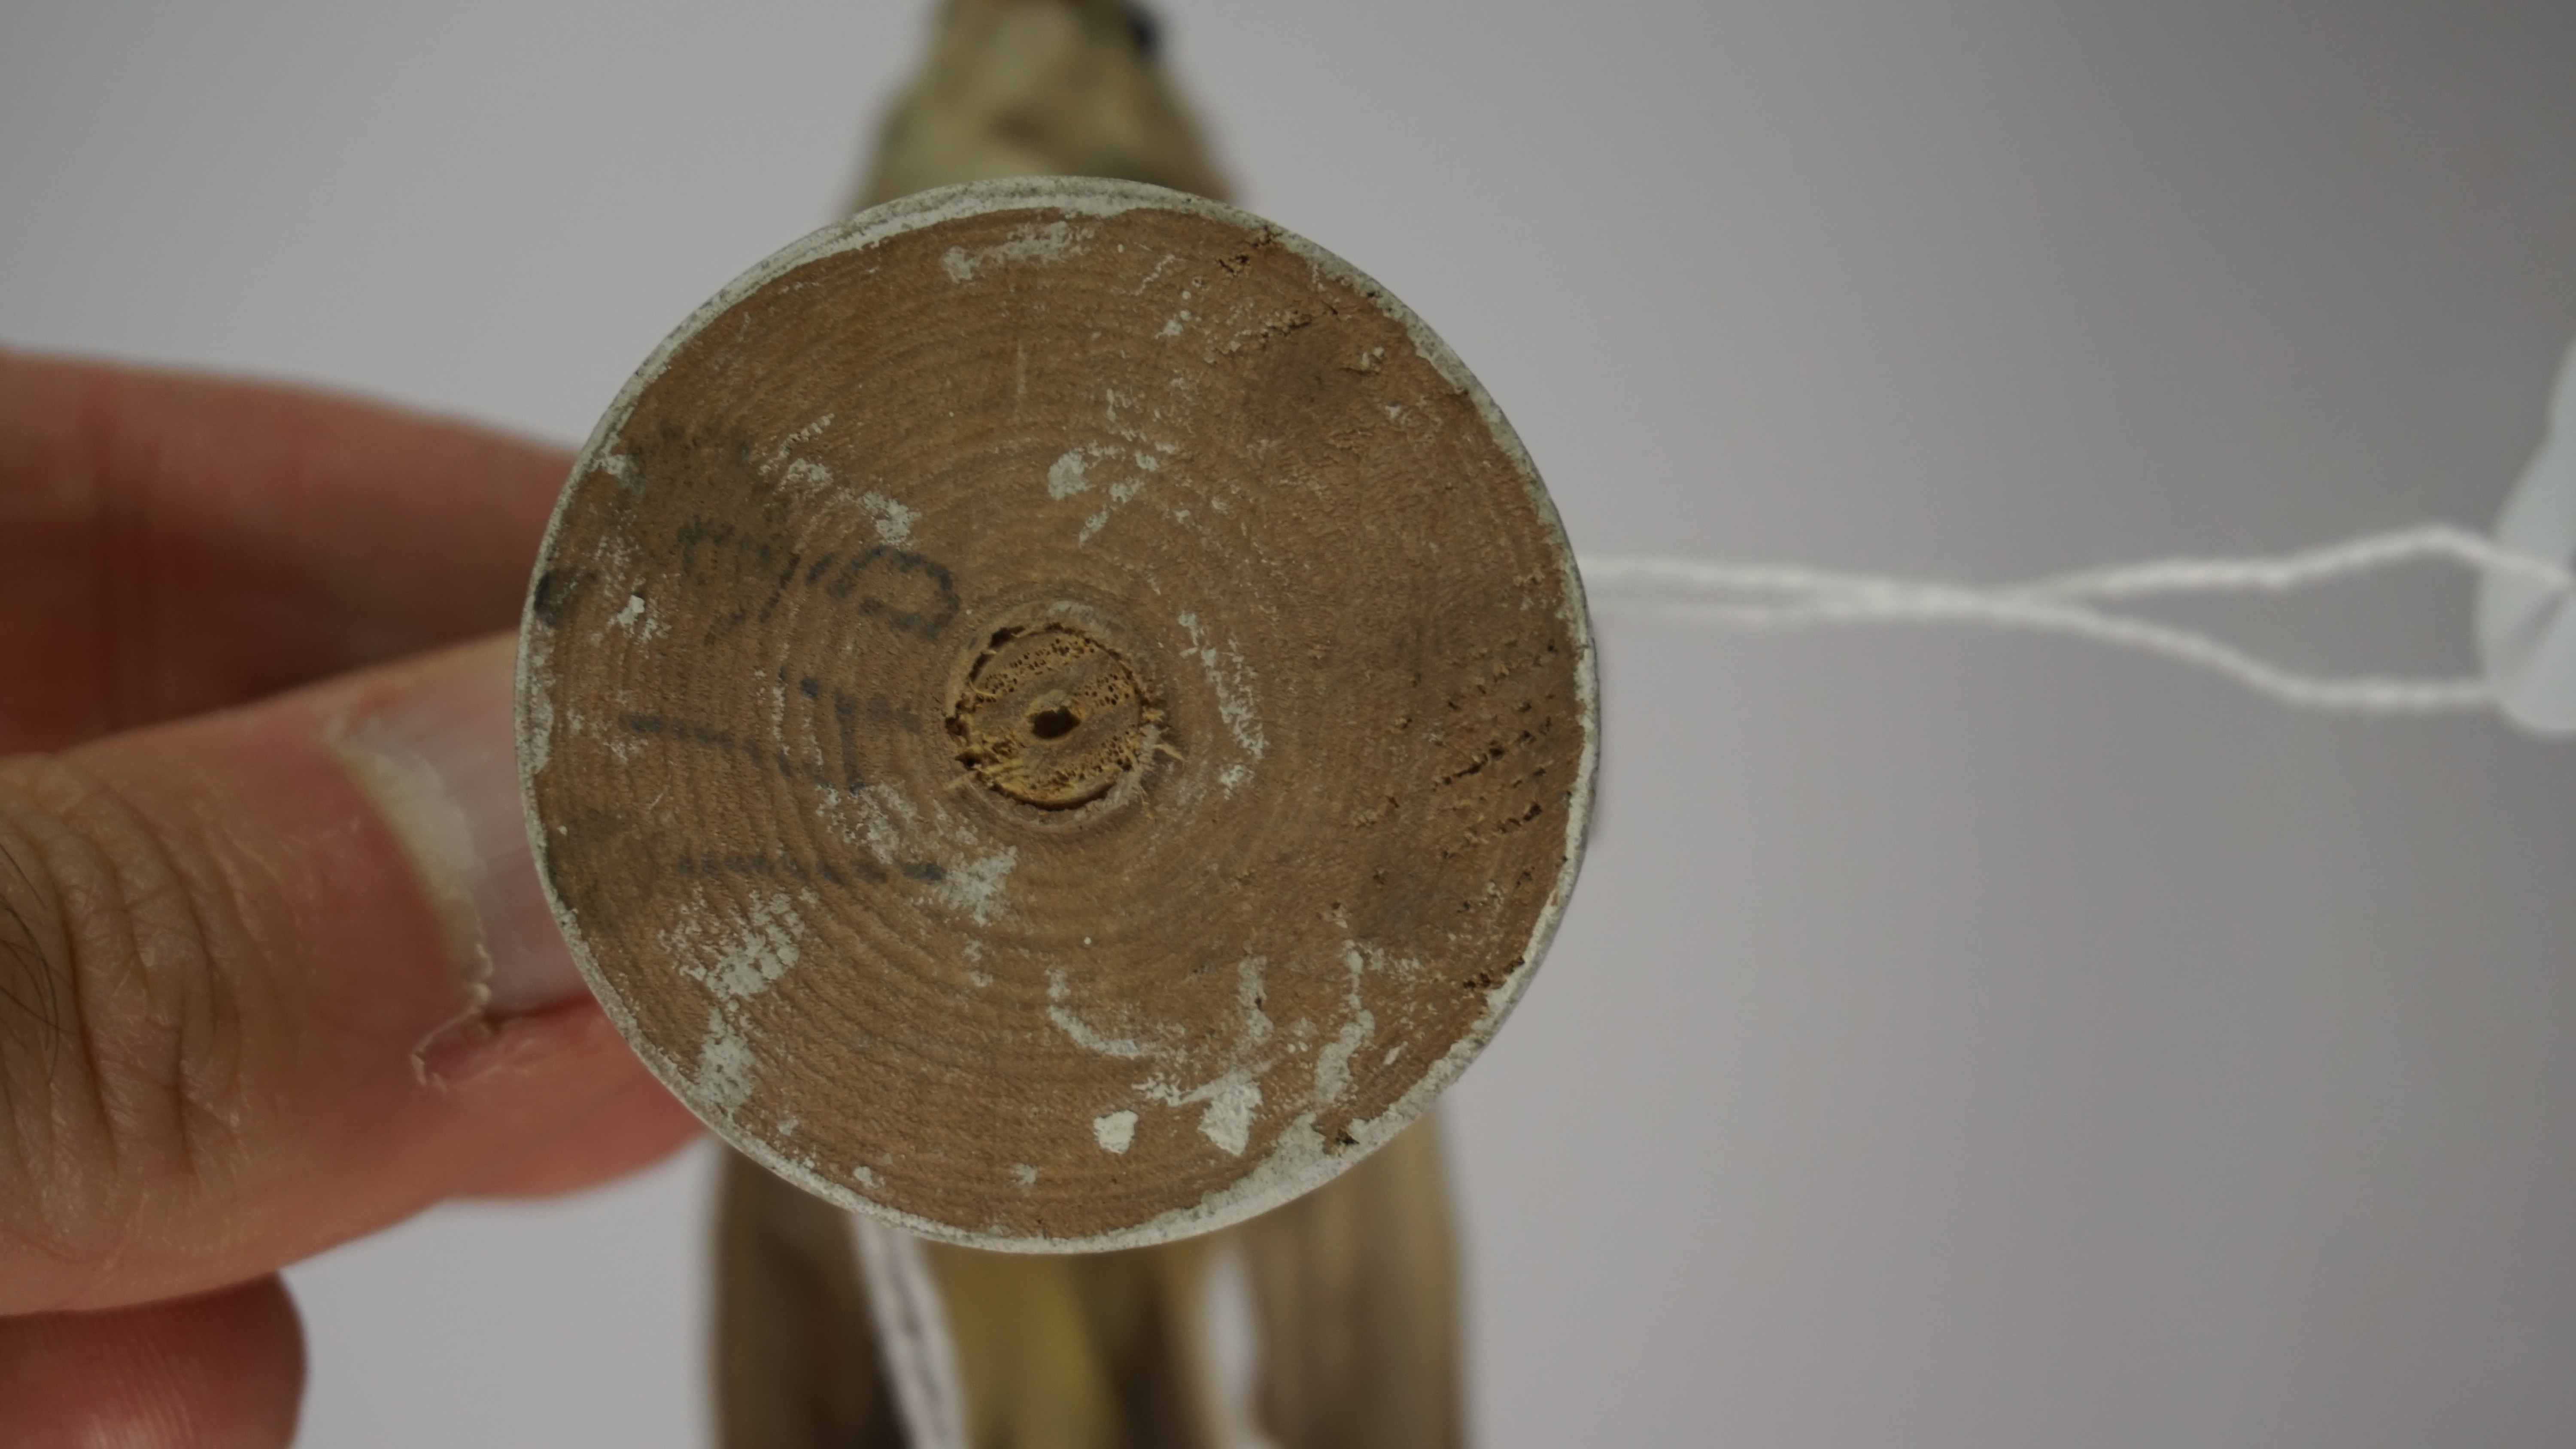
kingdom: Animalia
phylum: Chordata
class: Aves
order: Passeriformes
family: Acanthizidae
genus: Acanthiza
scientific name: Acanthiza chrysorrhoa
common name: Yellow-rumped thornbill
